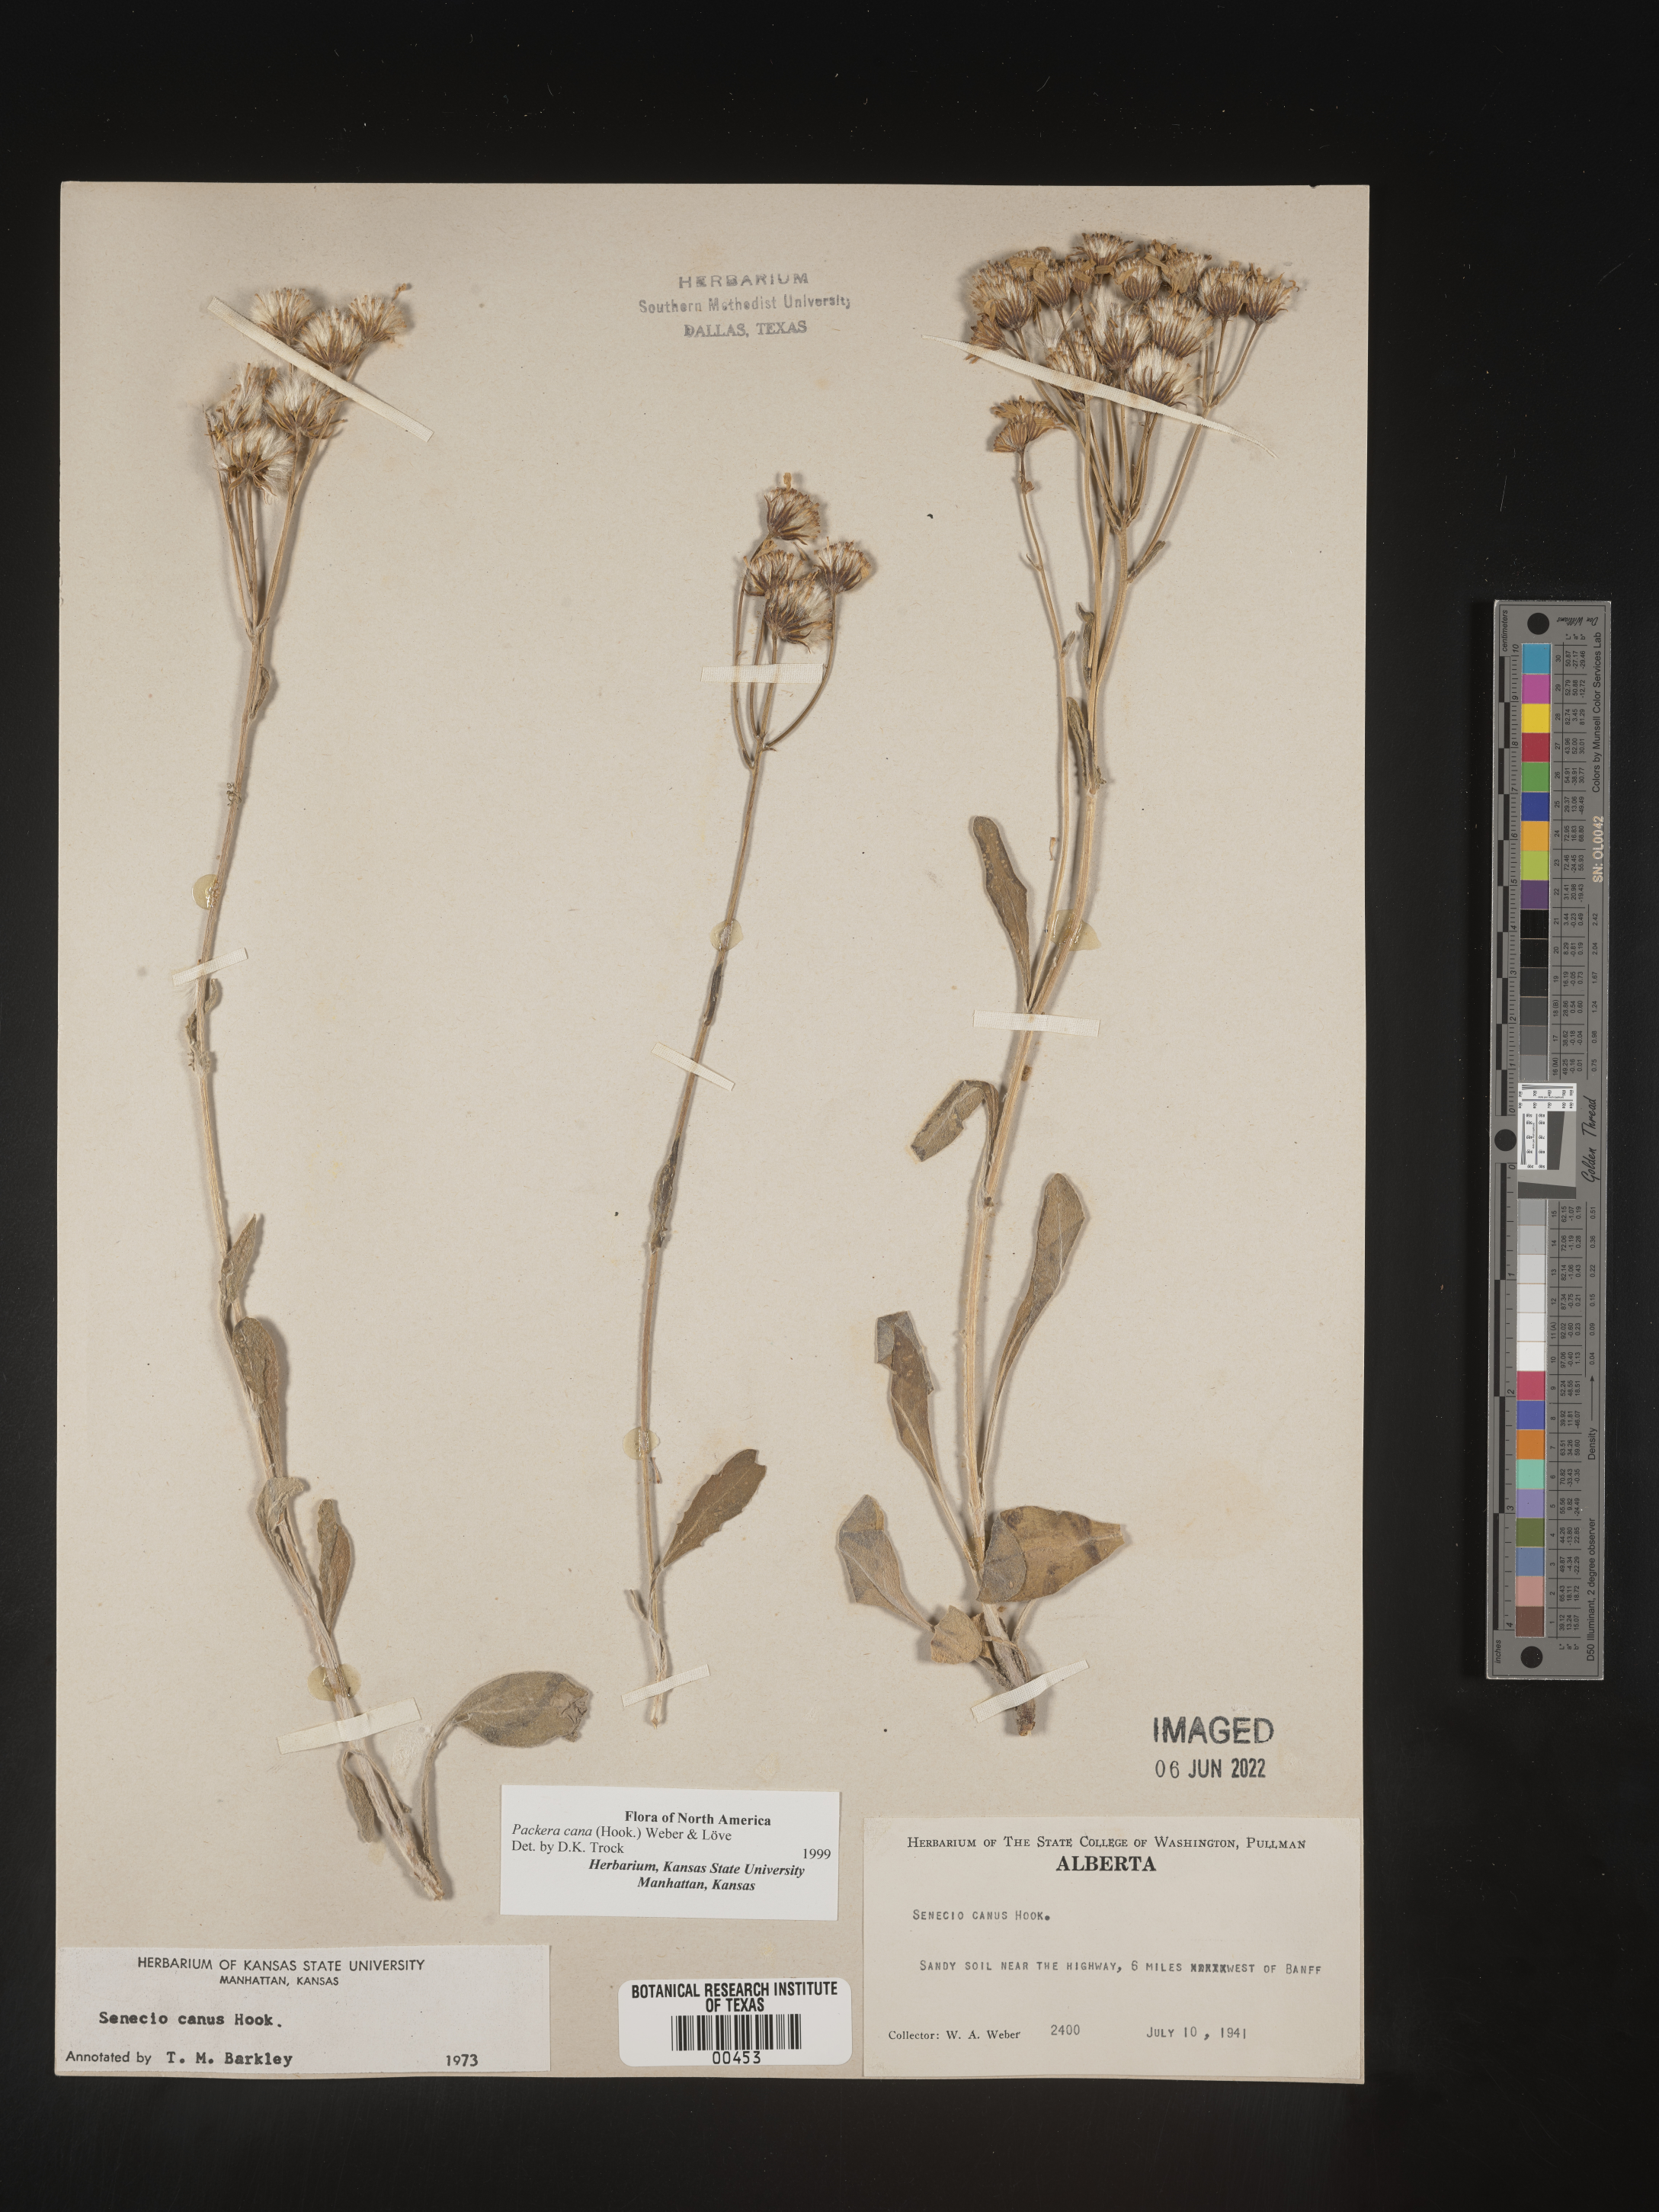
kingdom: Plantae
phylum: Tracheophyta
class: Magnoliopsida
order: Asterales
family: Asteraceae
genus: Packera
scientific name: Packera cana
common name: Woolly groundsel
